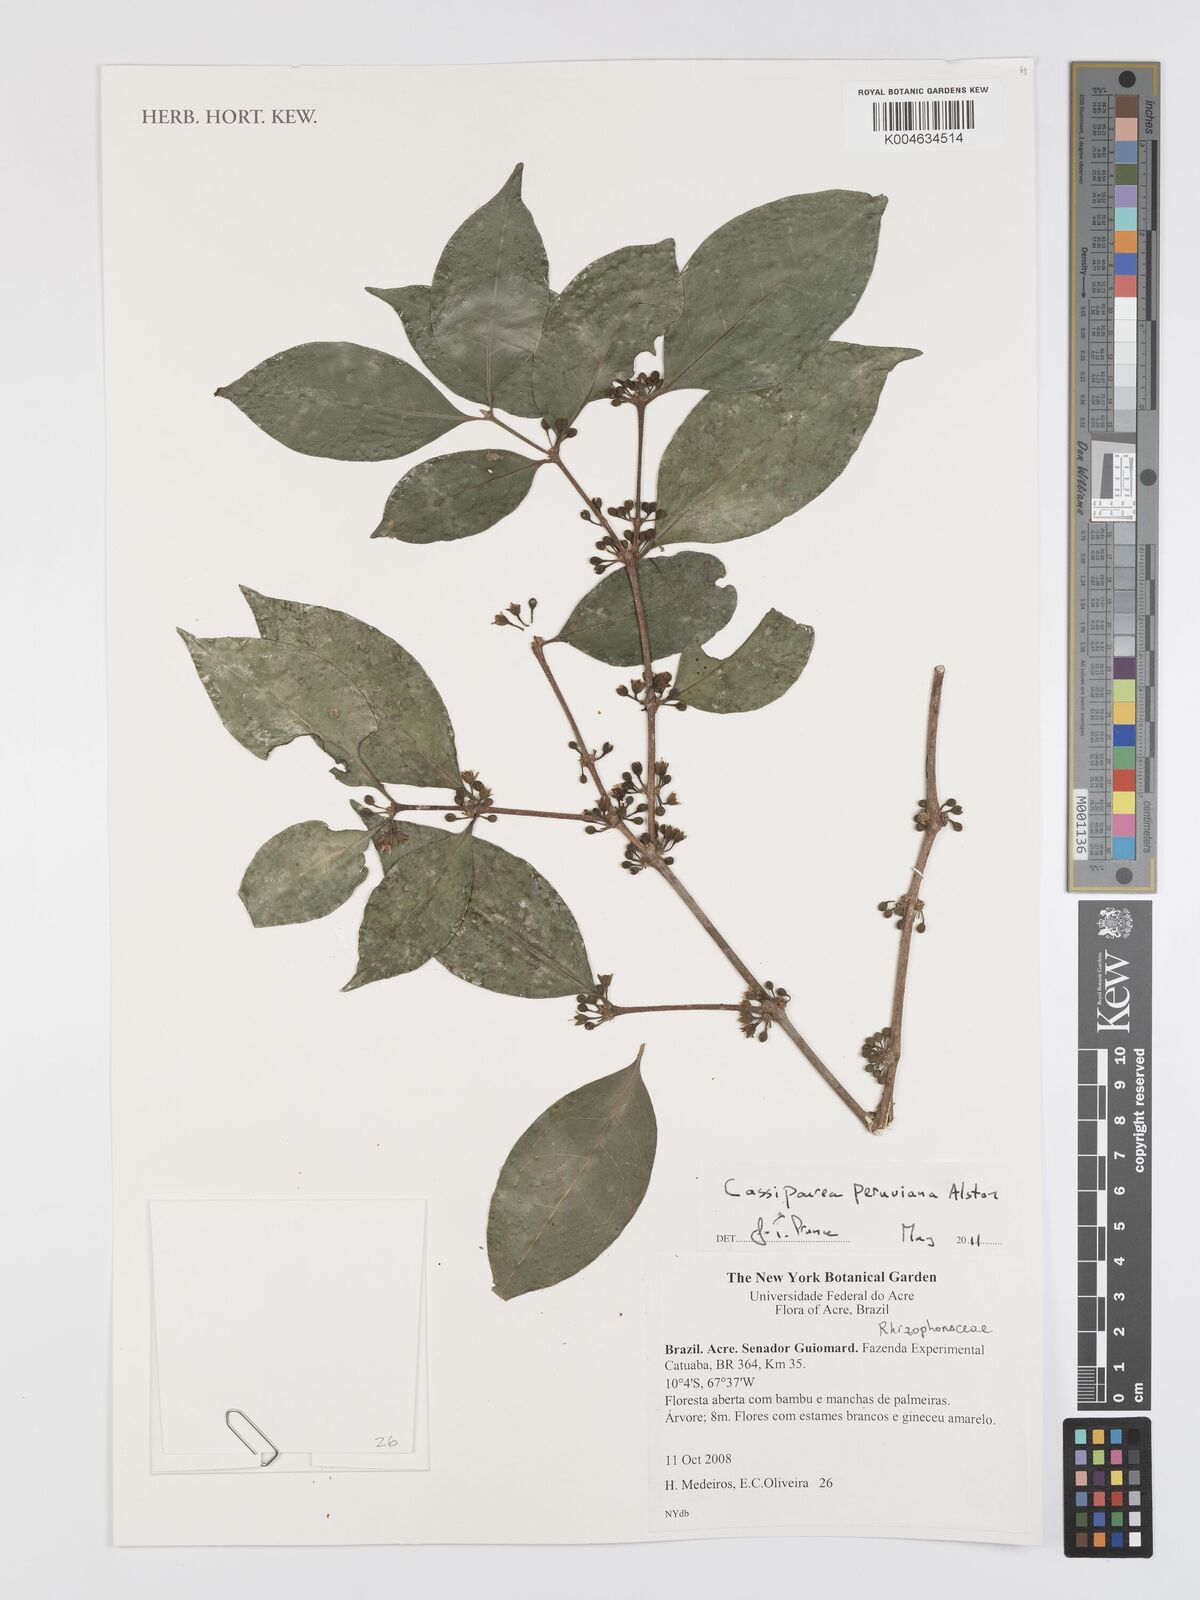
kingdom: Plantae
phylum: Tracheophyta
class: Magnoliopsida
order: Malpighiales
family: Rhizophoraceae
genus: Cassipourea
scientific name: Cassipourea peruviana
